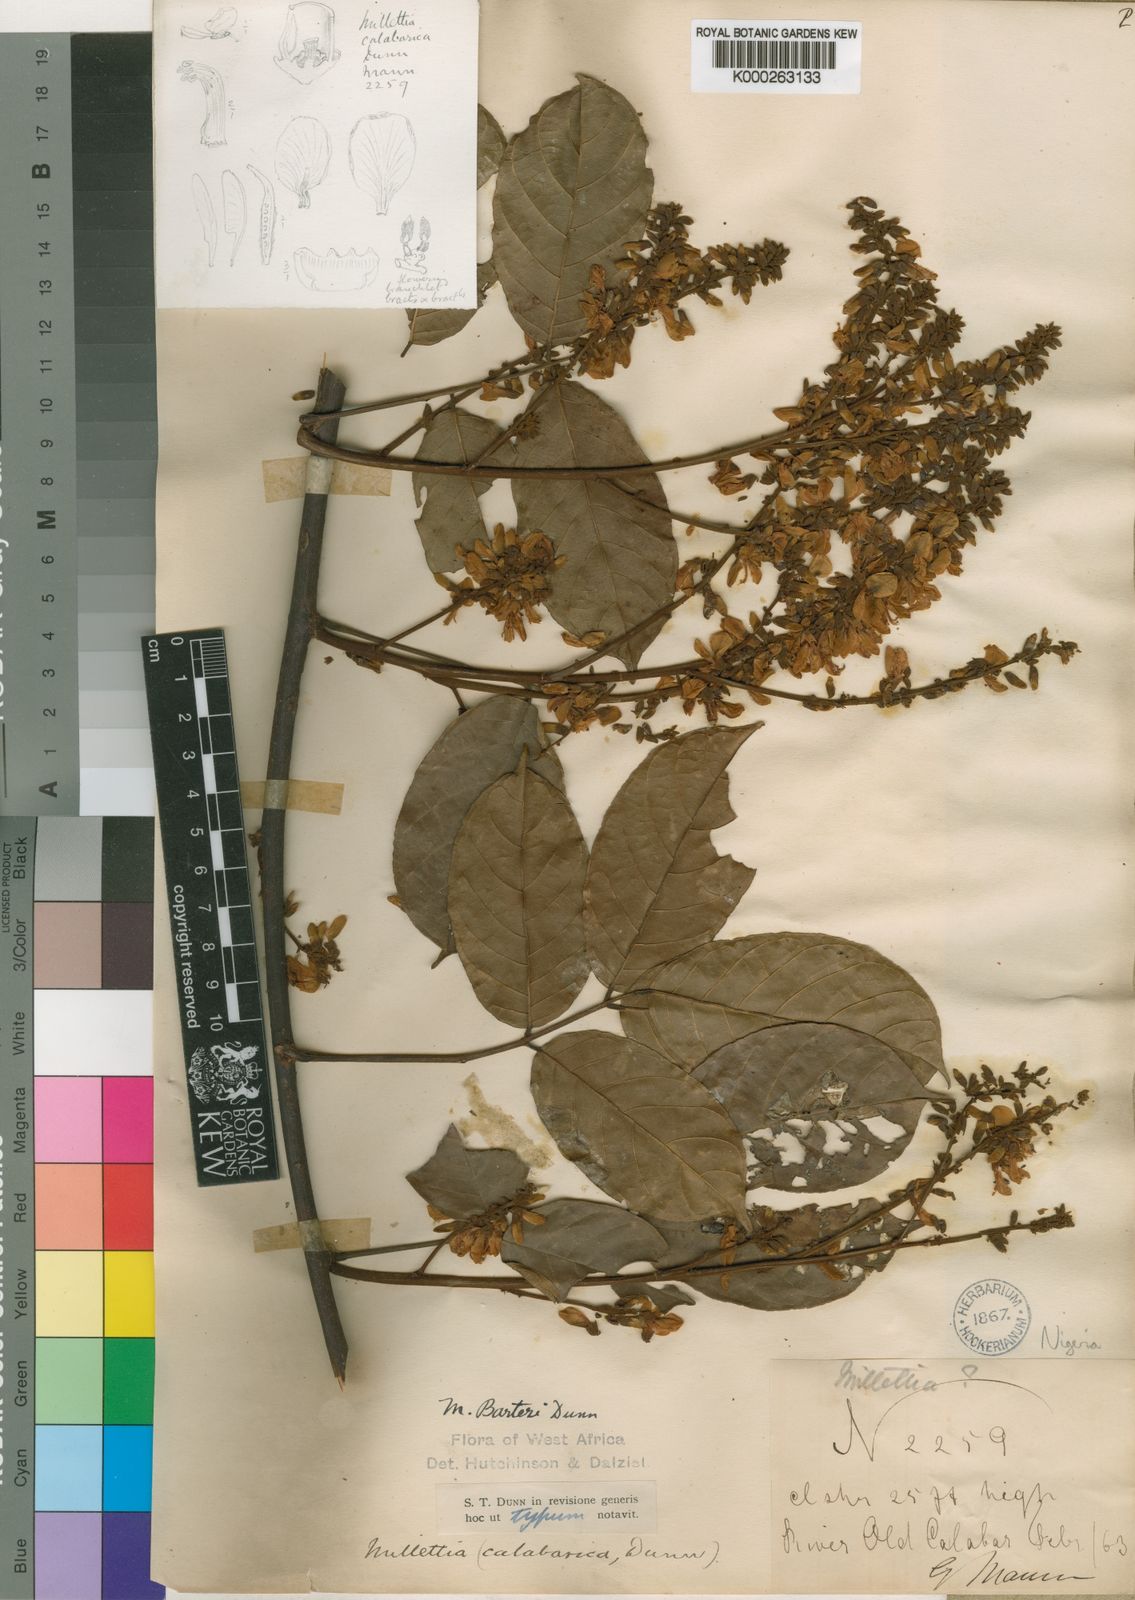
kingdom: Plantae
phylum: Tracheophyta
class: Magnoliopsida
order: Fabales
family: Fabaceae
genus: Millettia
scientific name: Millettia barteri
